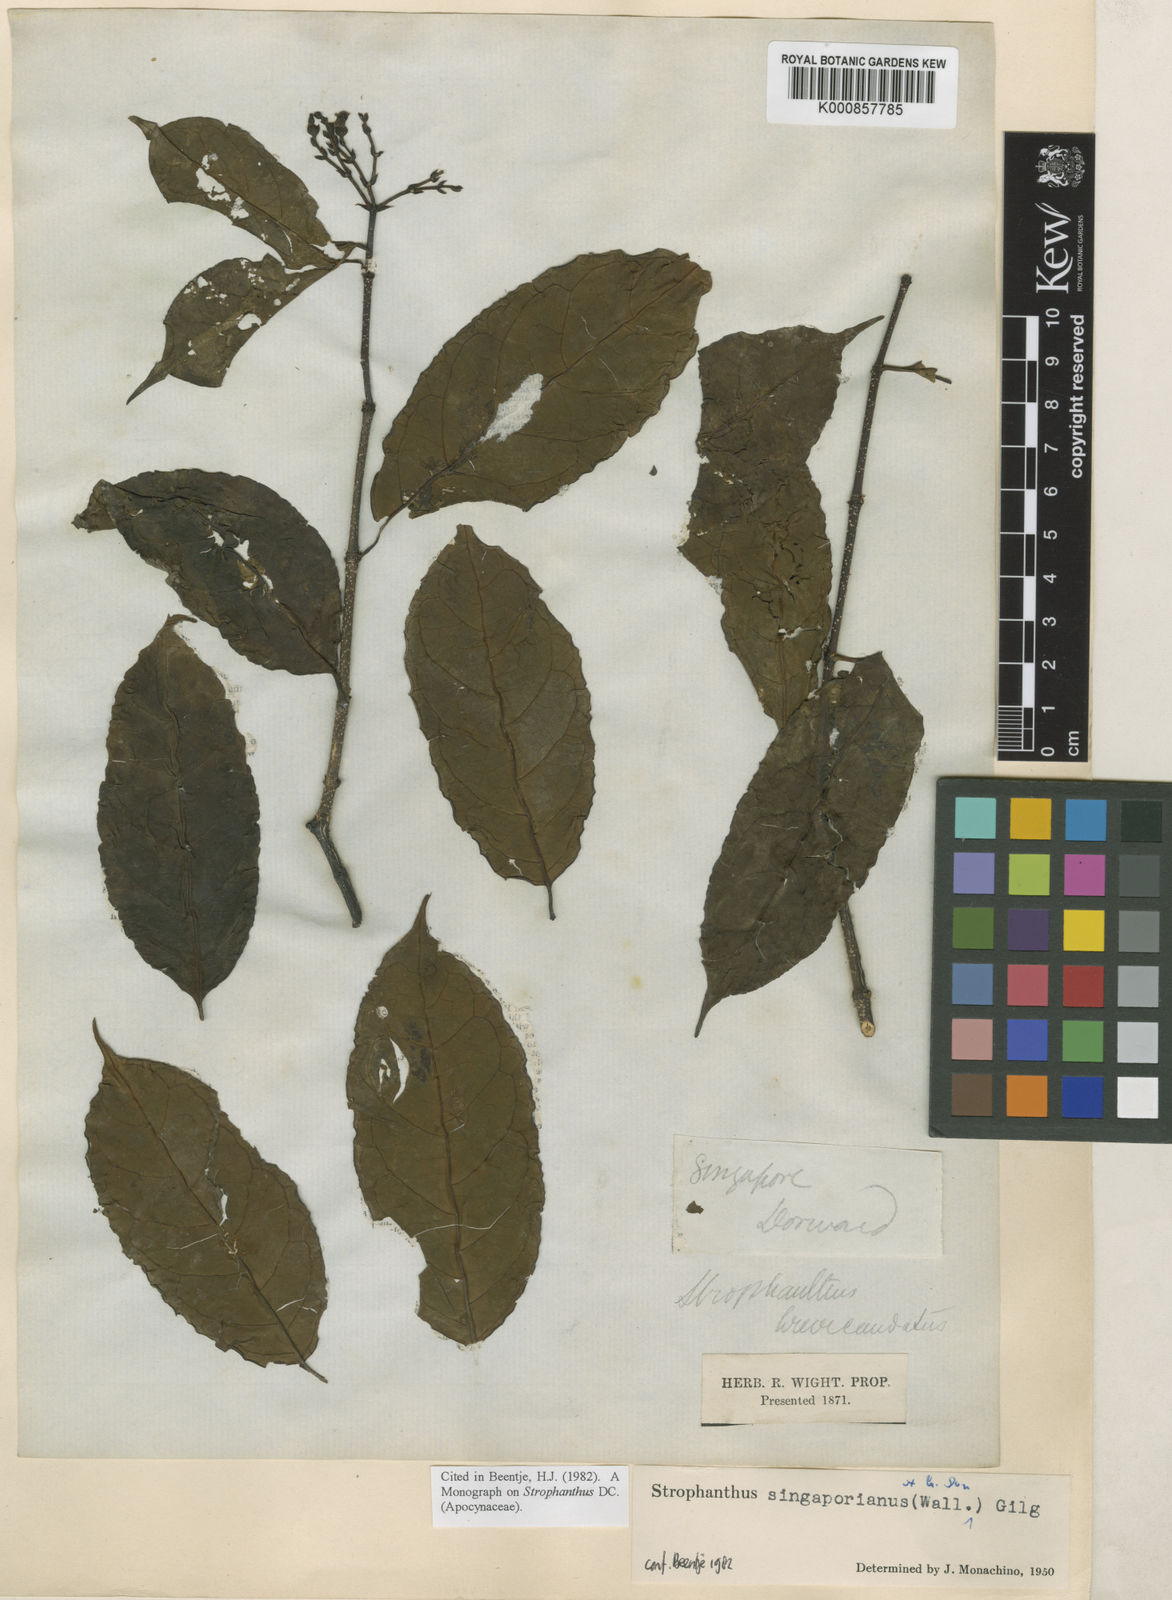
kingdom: Plantae
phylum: Tracheophyta
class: Magnoliopsida
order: Gentianales
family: Apocynaceae
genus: Strophanthus
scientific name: Strophanthus singaporianus
